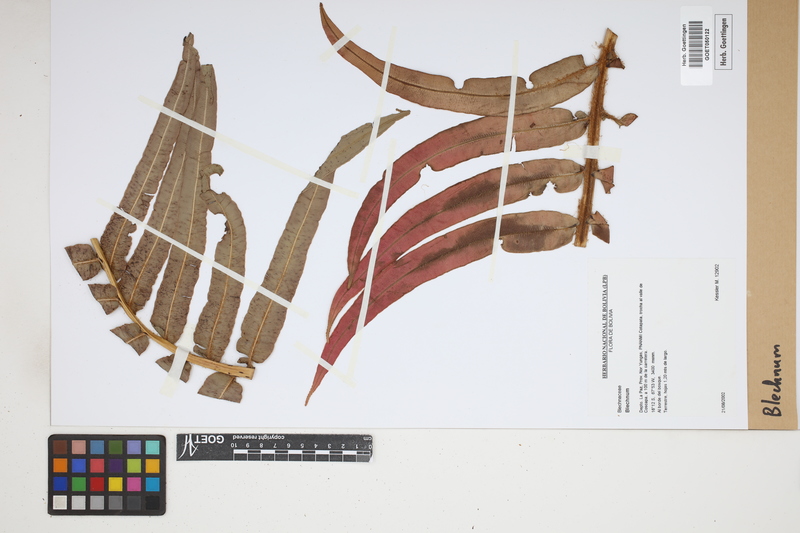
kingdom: Plantae
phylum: Tracheophyta
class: Polypodiopsida
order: Polypodiales
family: Blechnaceae
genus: Blechnum
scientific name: Blechnum
